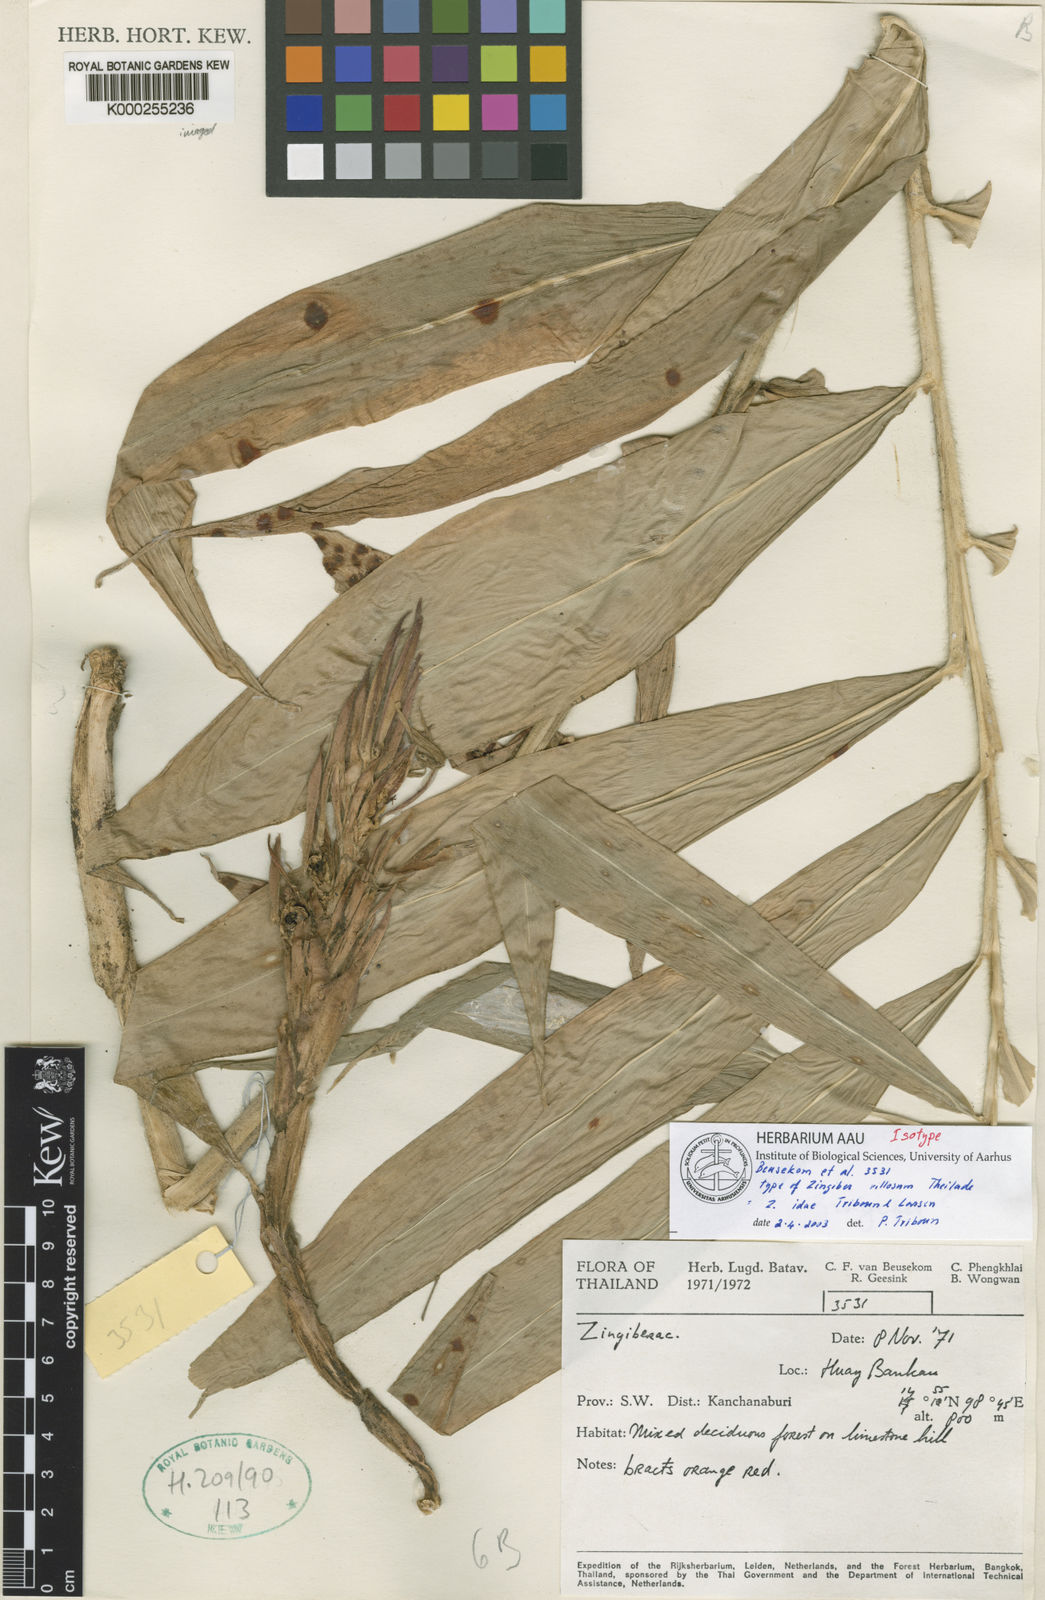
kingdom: Plantae
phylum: Tracheophyta
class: Liliopsida
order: Zingiberales
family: Zingiberaceae
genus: Zingiber
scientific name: Zingiber idae
